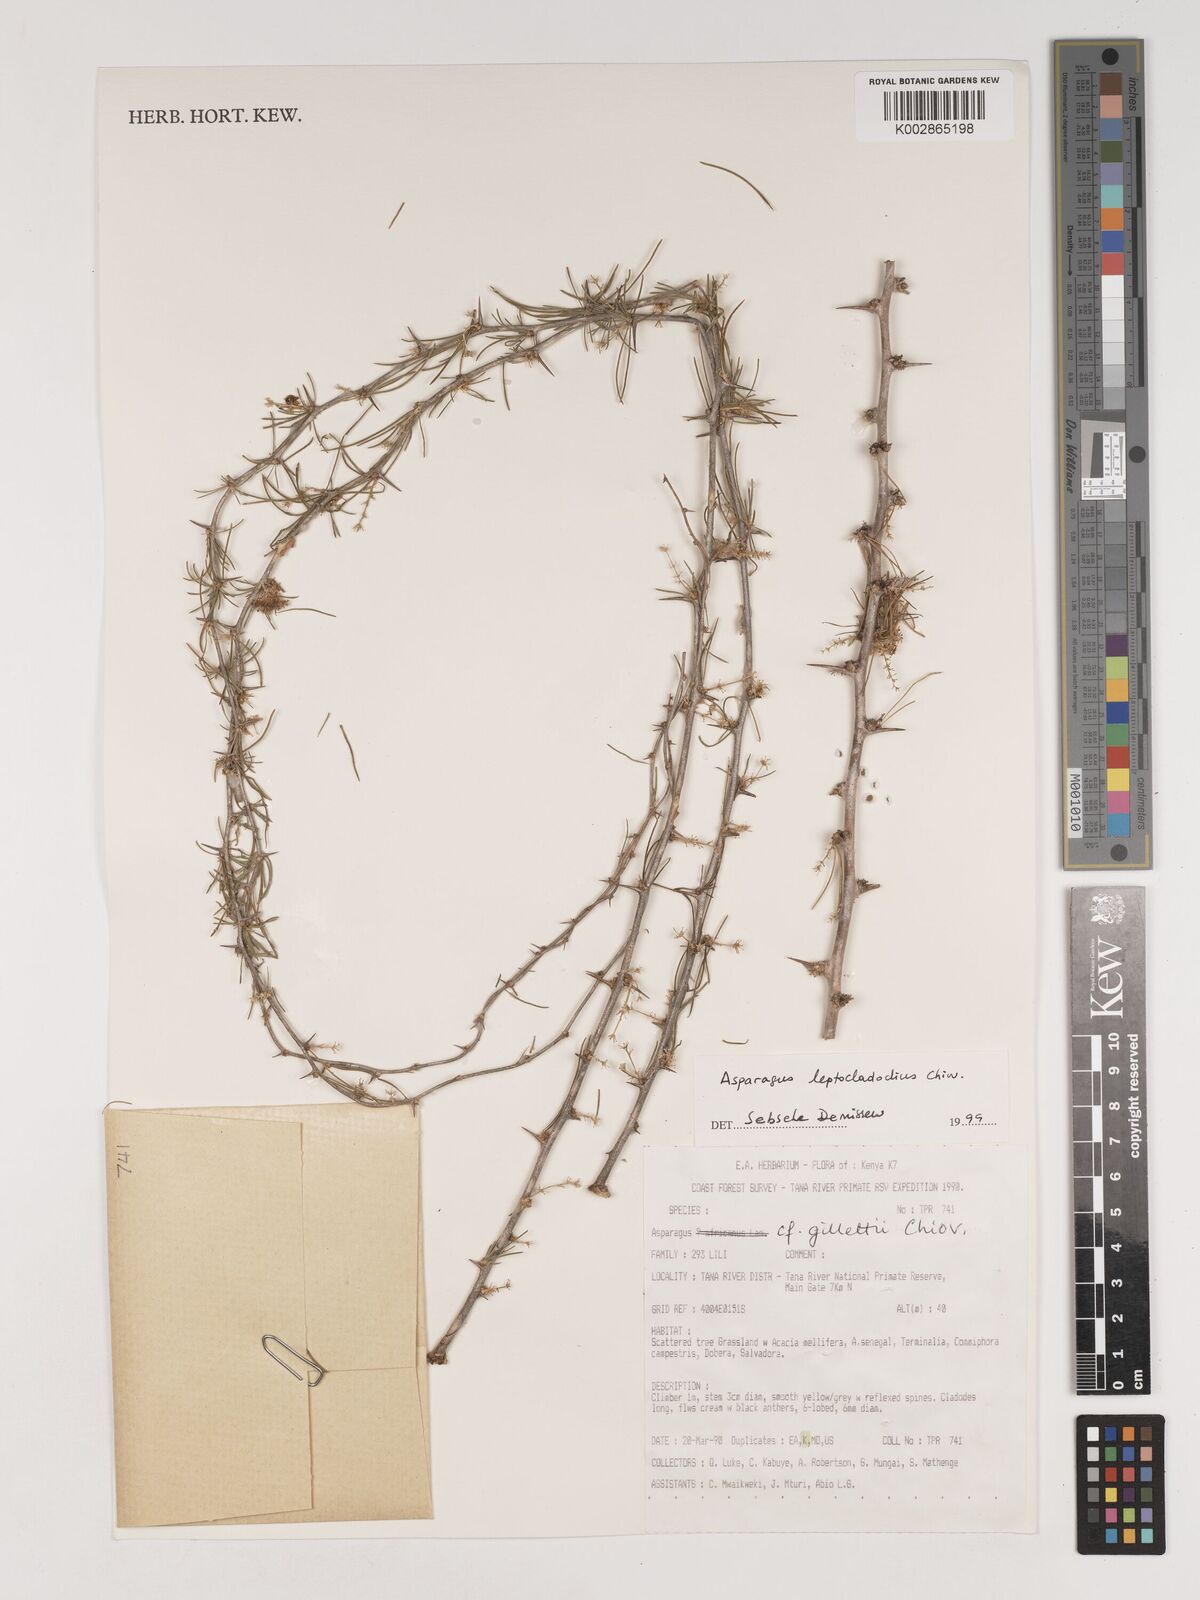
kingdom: Plantae
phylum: Tracheophyta
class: Liliopsida
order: Asparagales
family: Asparagaceae
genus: Asparagus
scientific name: Asparagus leptocladodius
